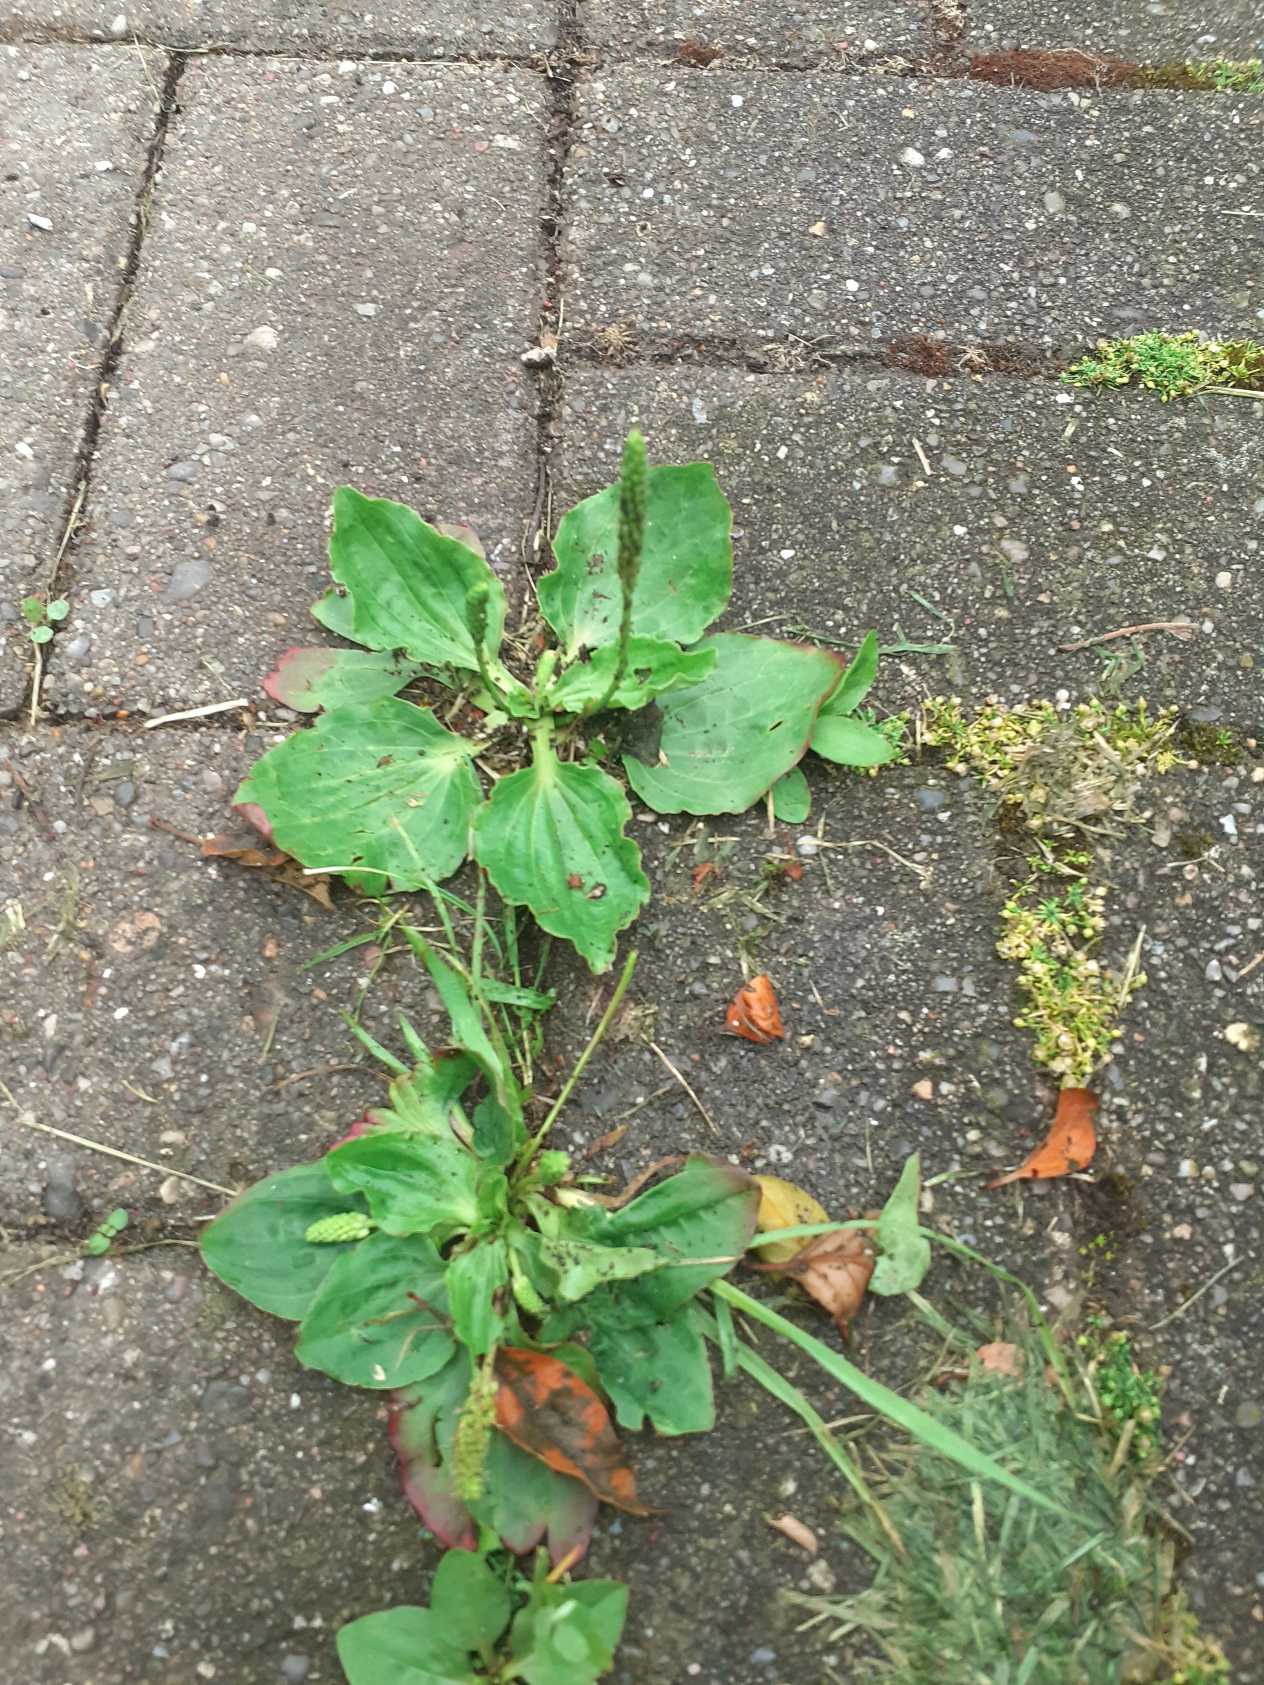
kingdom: Plantae
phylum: Tracheophyta
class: Magnoliopsida
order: Lamiales
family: Plantaginaceae
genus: Plantago
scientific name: Plantago major
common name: Glat vejbred
